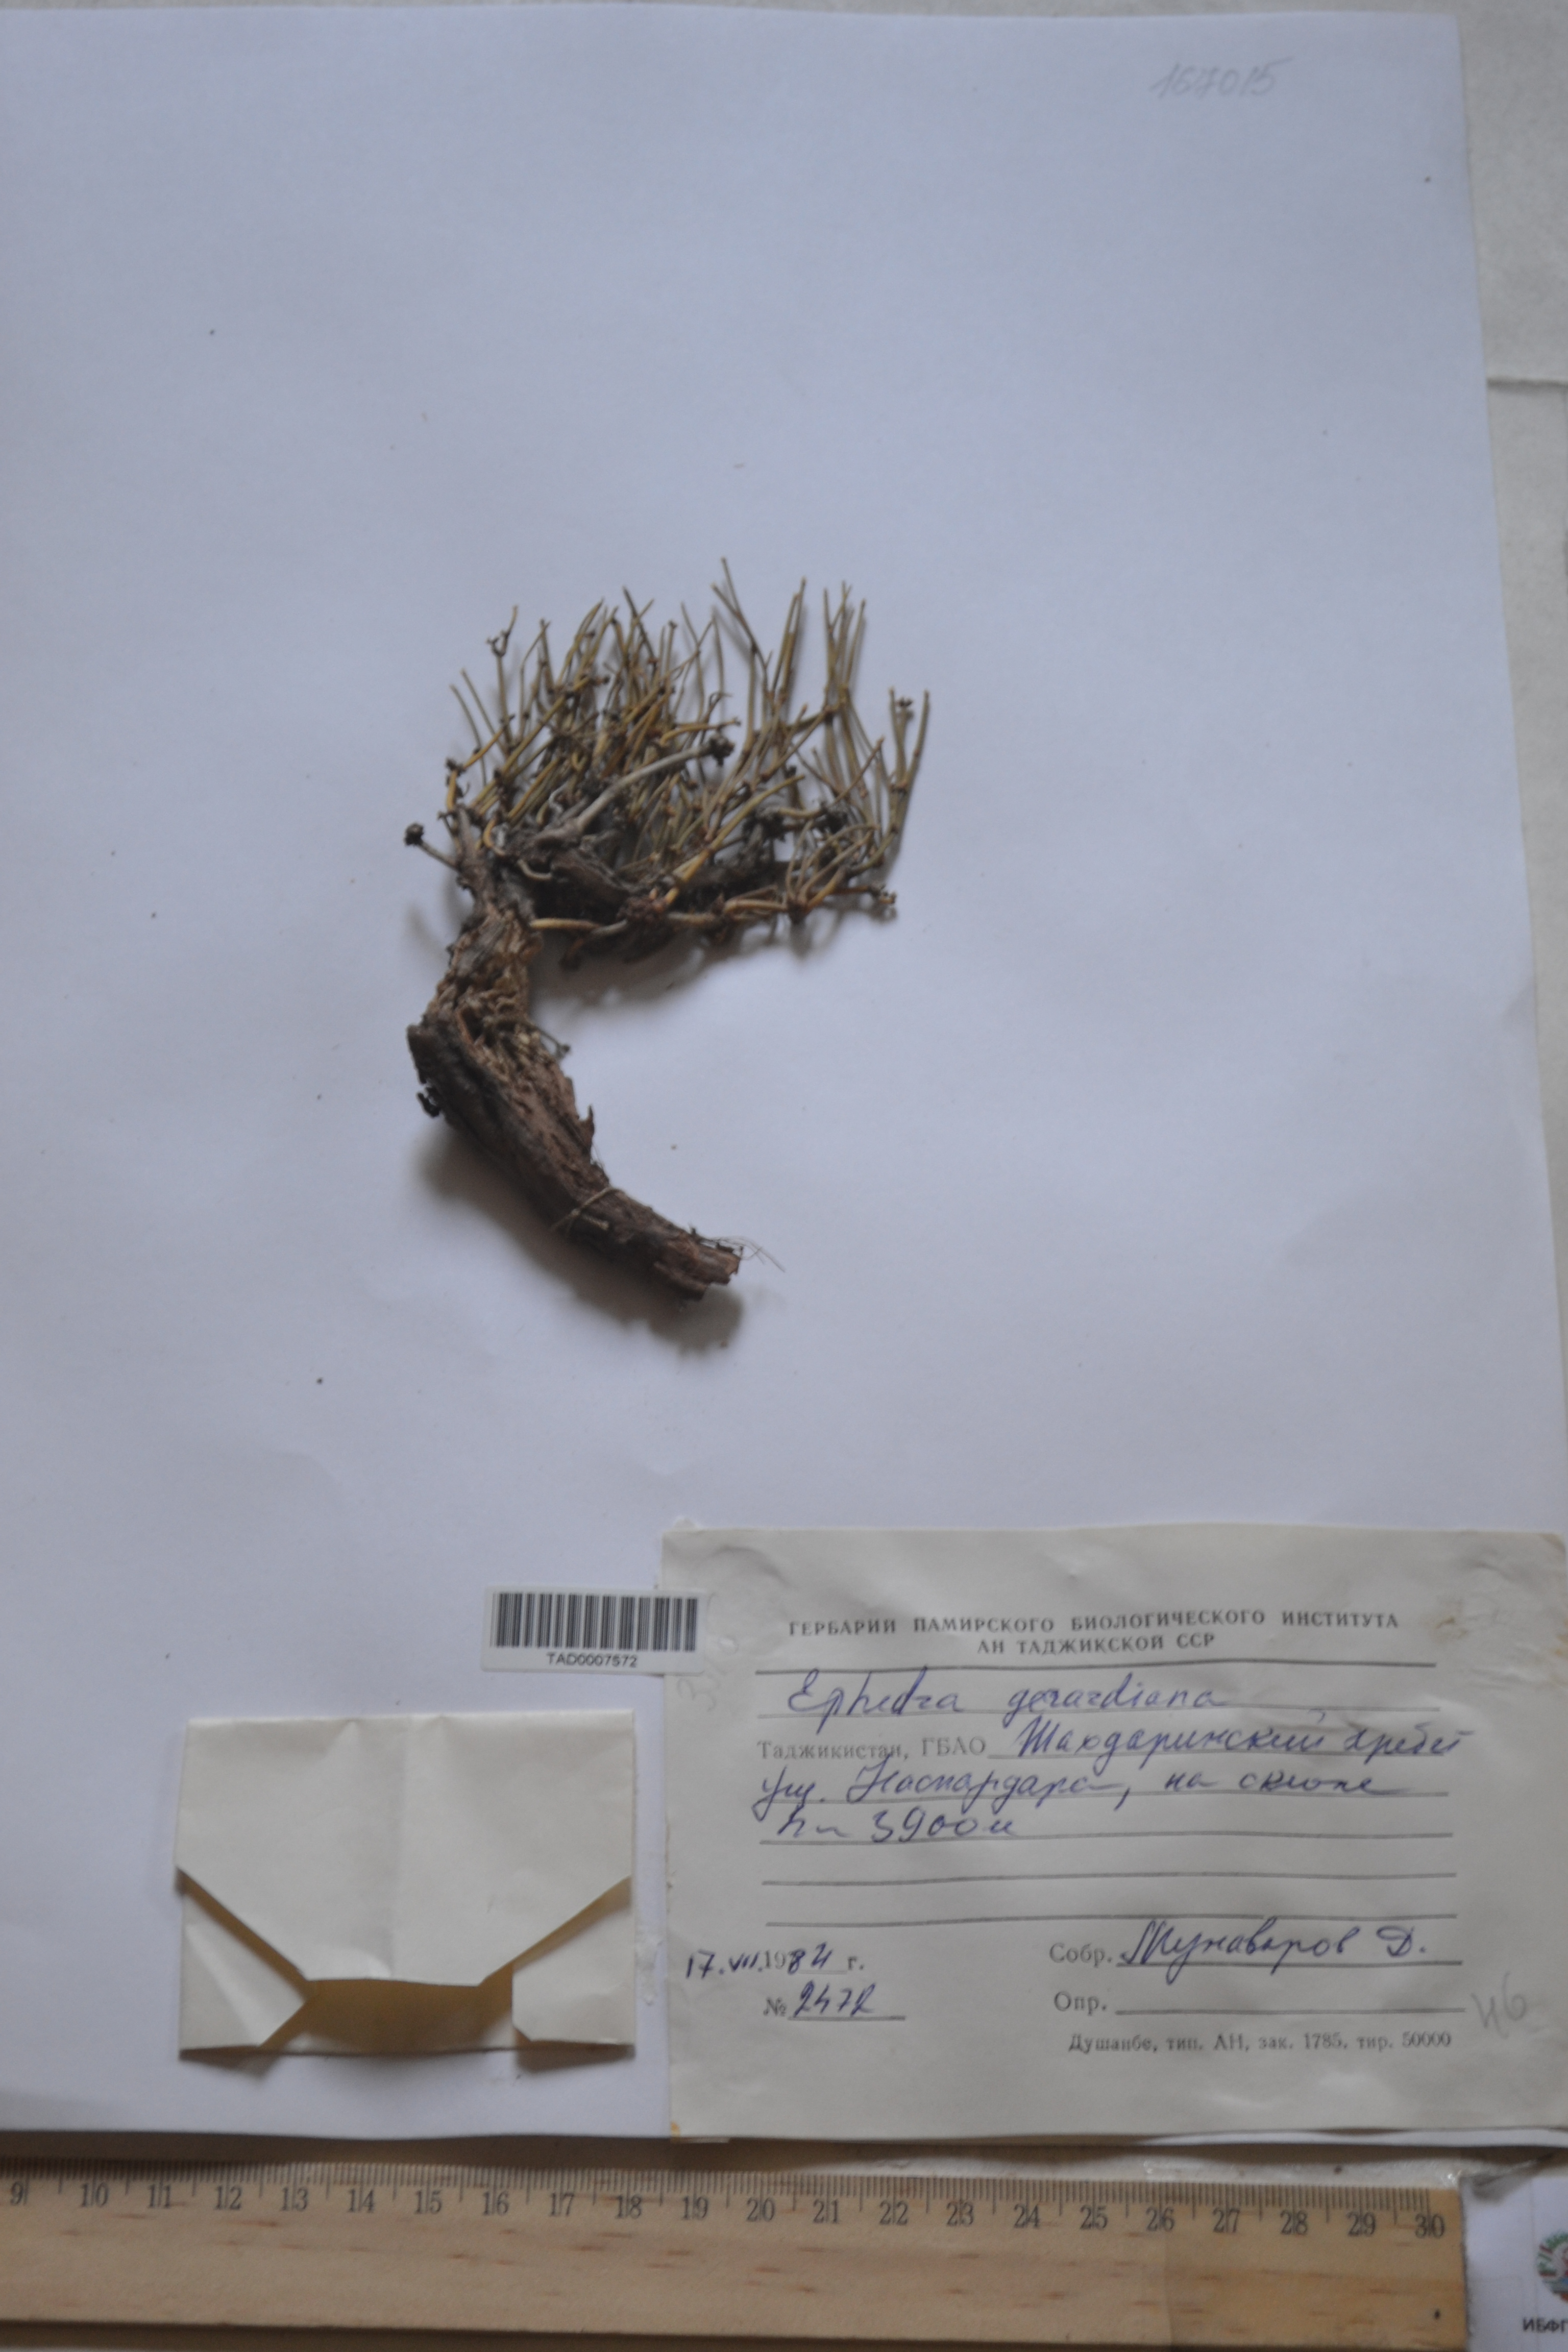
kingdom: Plantae
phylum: Tracheophyta
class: Gnetopsida
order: Ephedrales
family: Ephedraceae
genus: Ephedra
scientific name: Ephedra gerardiana
